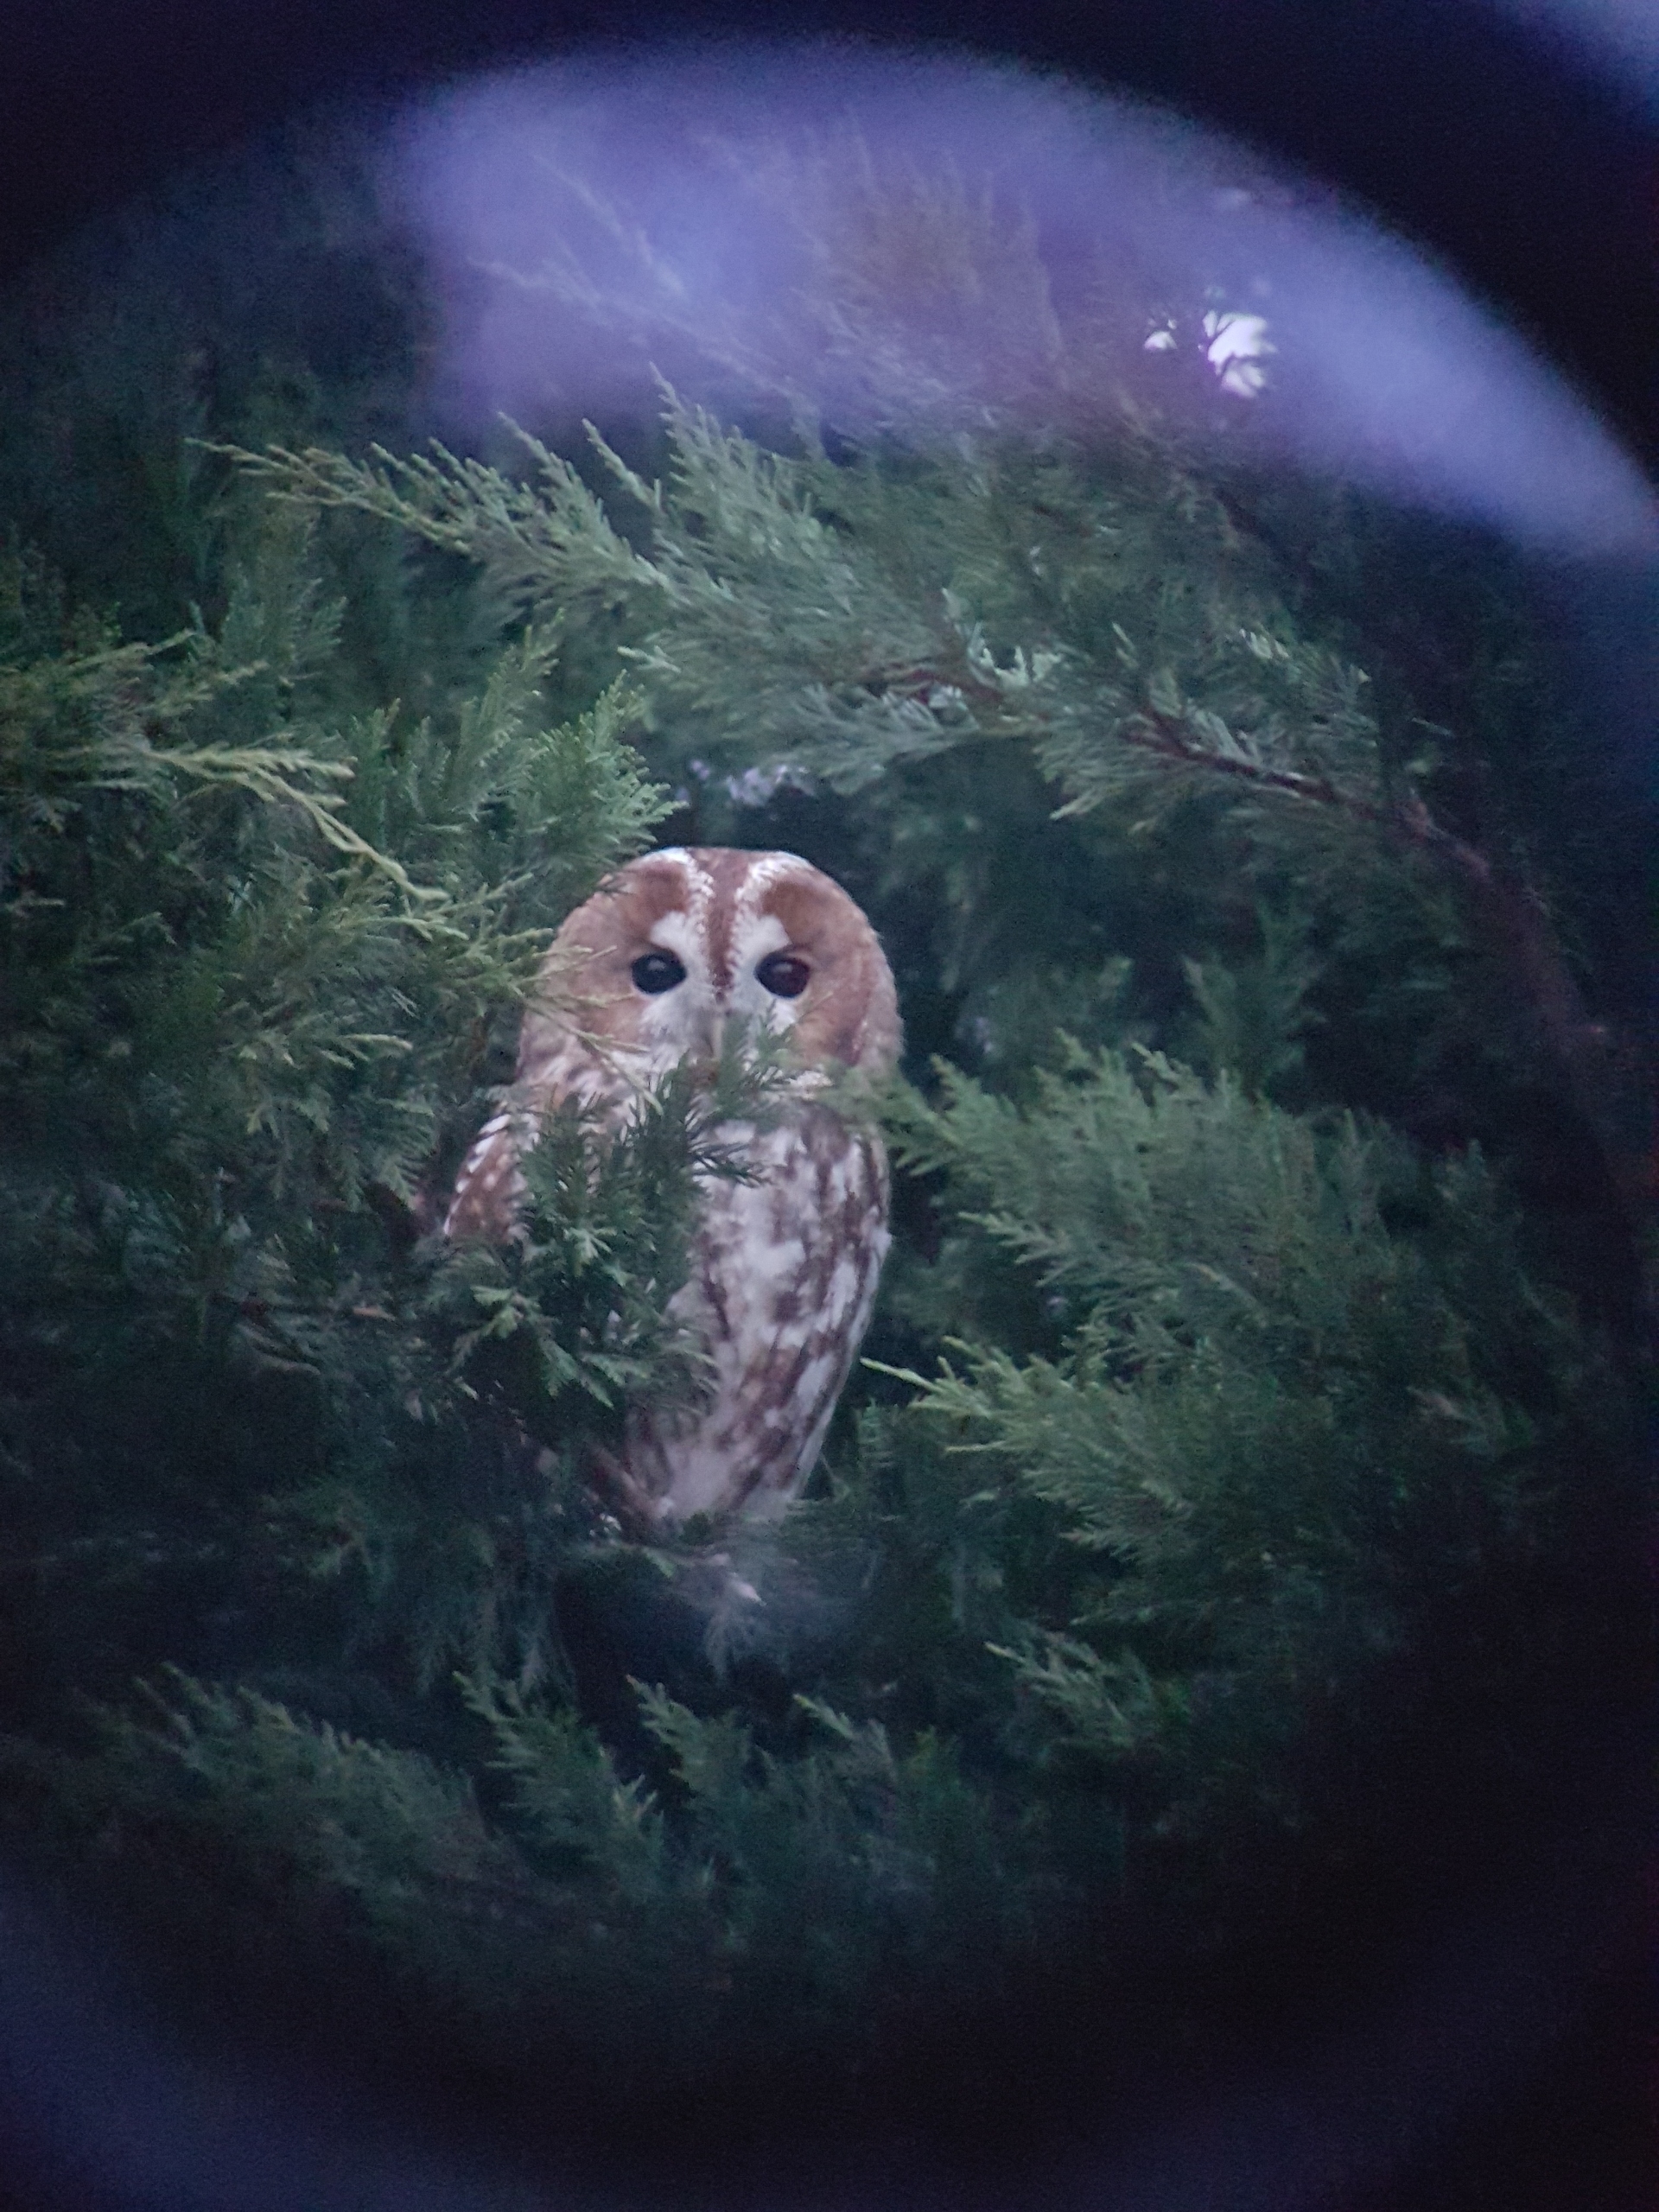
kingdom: Animalia
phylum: Chordata
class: Aves
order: Strigiformes
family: Strigidae
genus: Strix
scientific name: Strix aluco
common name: Natugle
